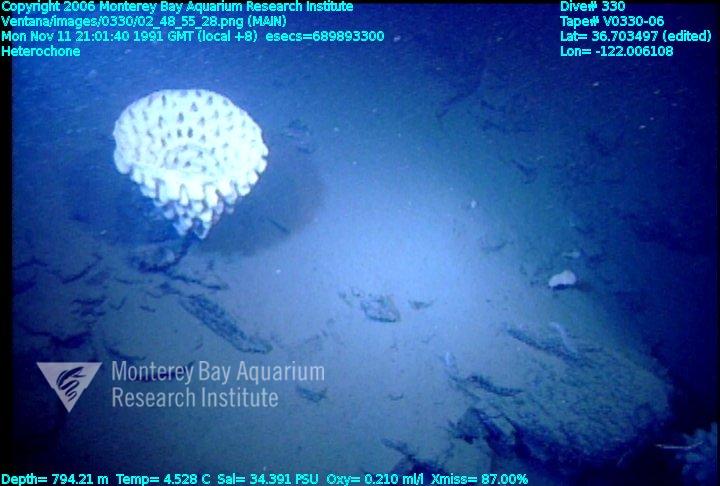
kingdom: Animalia
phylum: Porifera
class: Hexactinellida
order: Sceptrulophora
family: Aphrocallistidae
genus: Heterochone
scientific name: Heterochone
